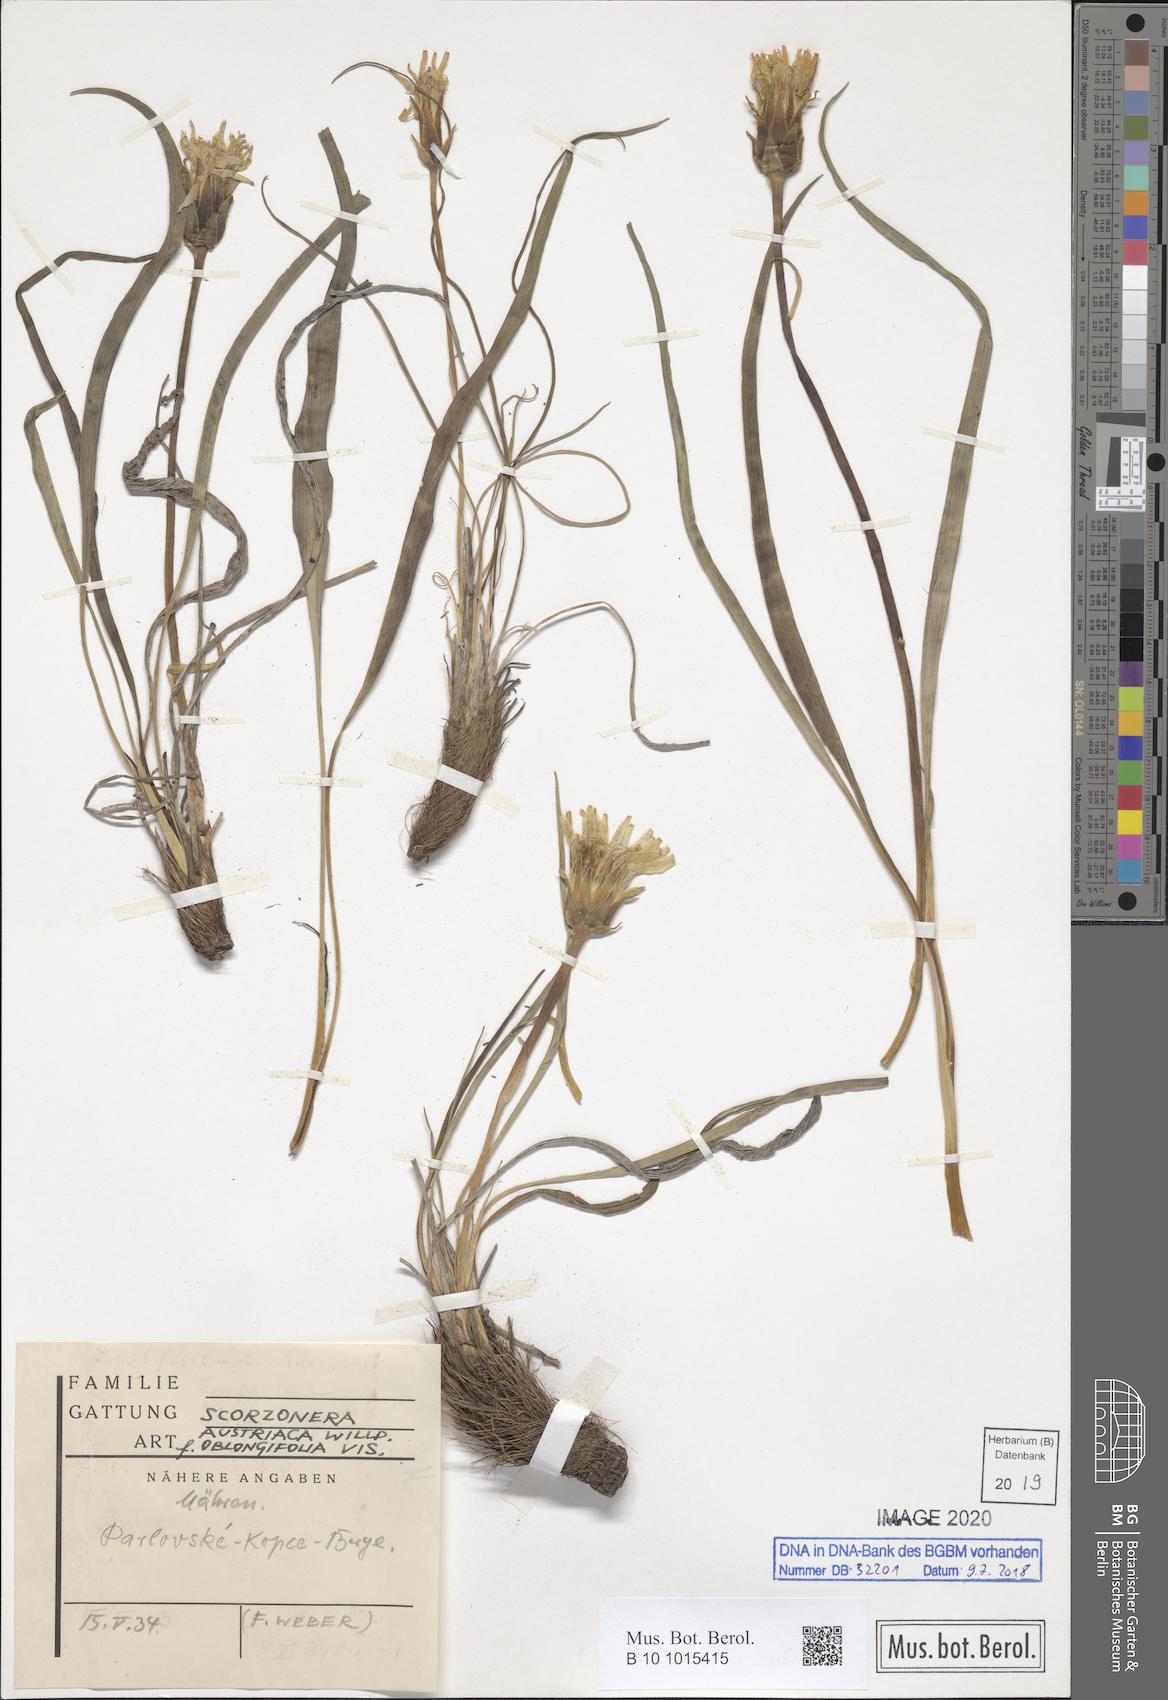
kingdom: Plantae
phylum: Tracheophyta
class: Magnoliopsida
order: Asterales
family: Asteraceae
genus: Takhtajaniantha
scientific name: Takhtajaniantha austriaca
